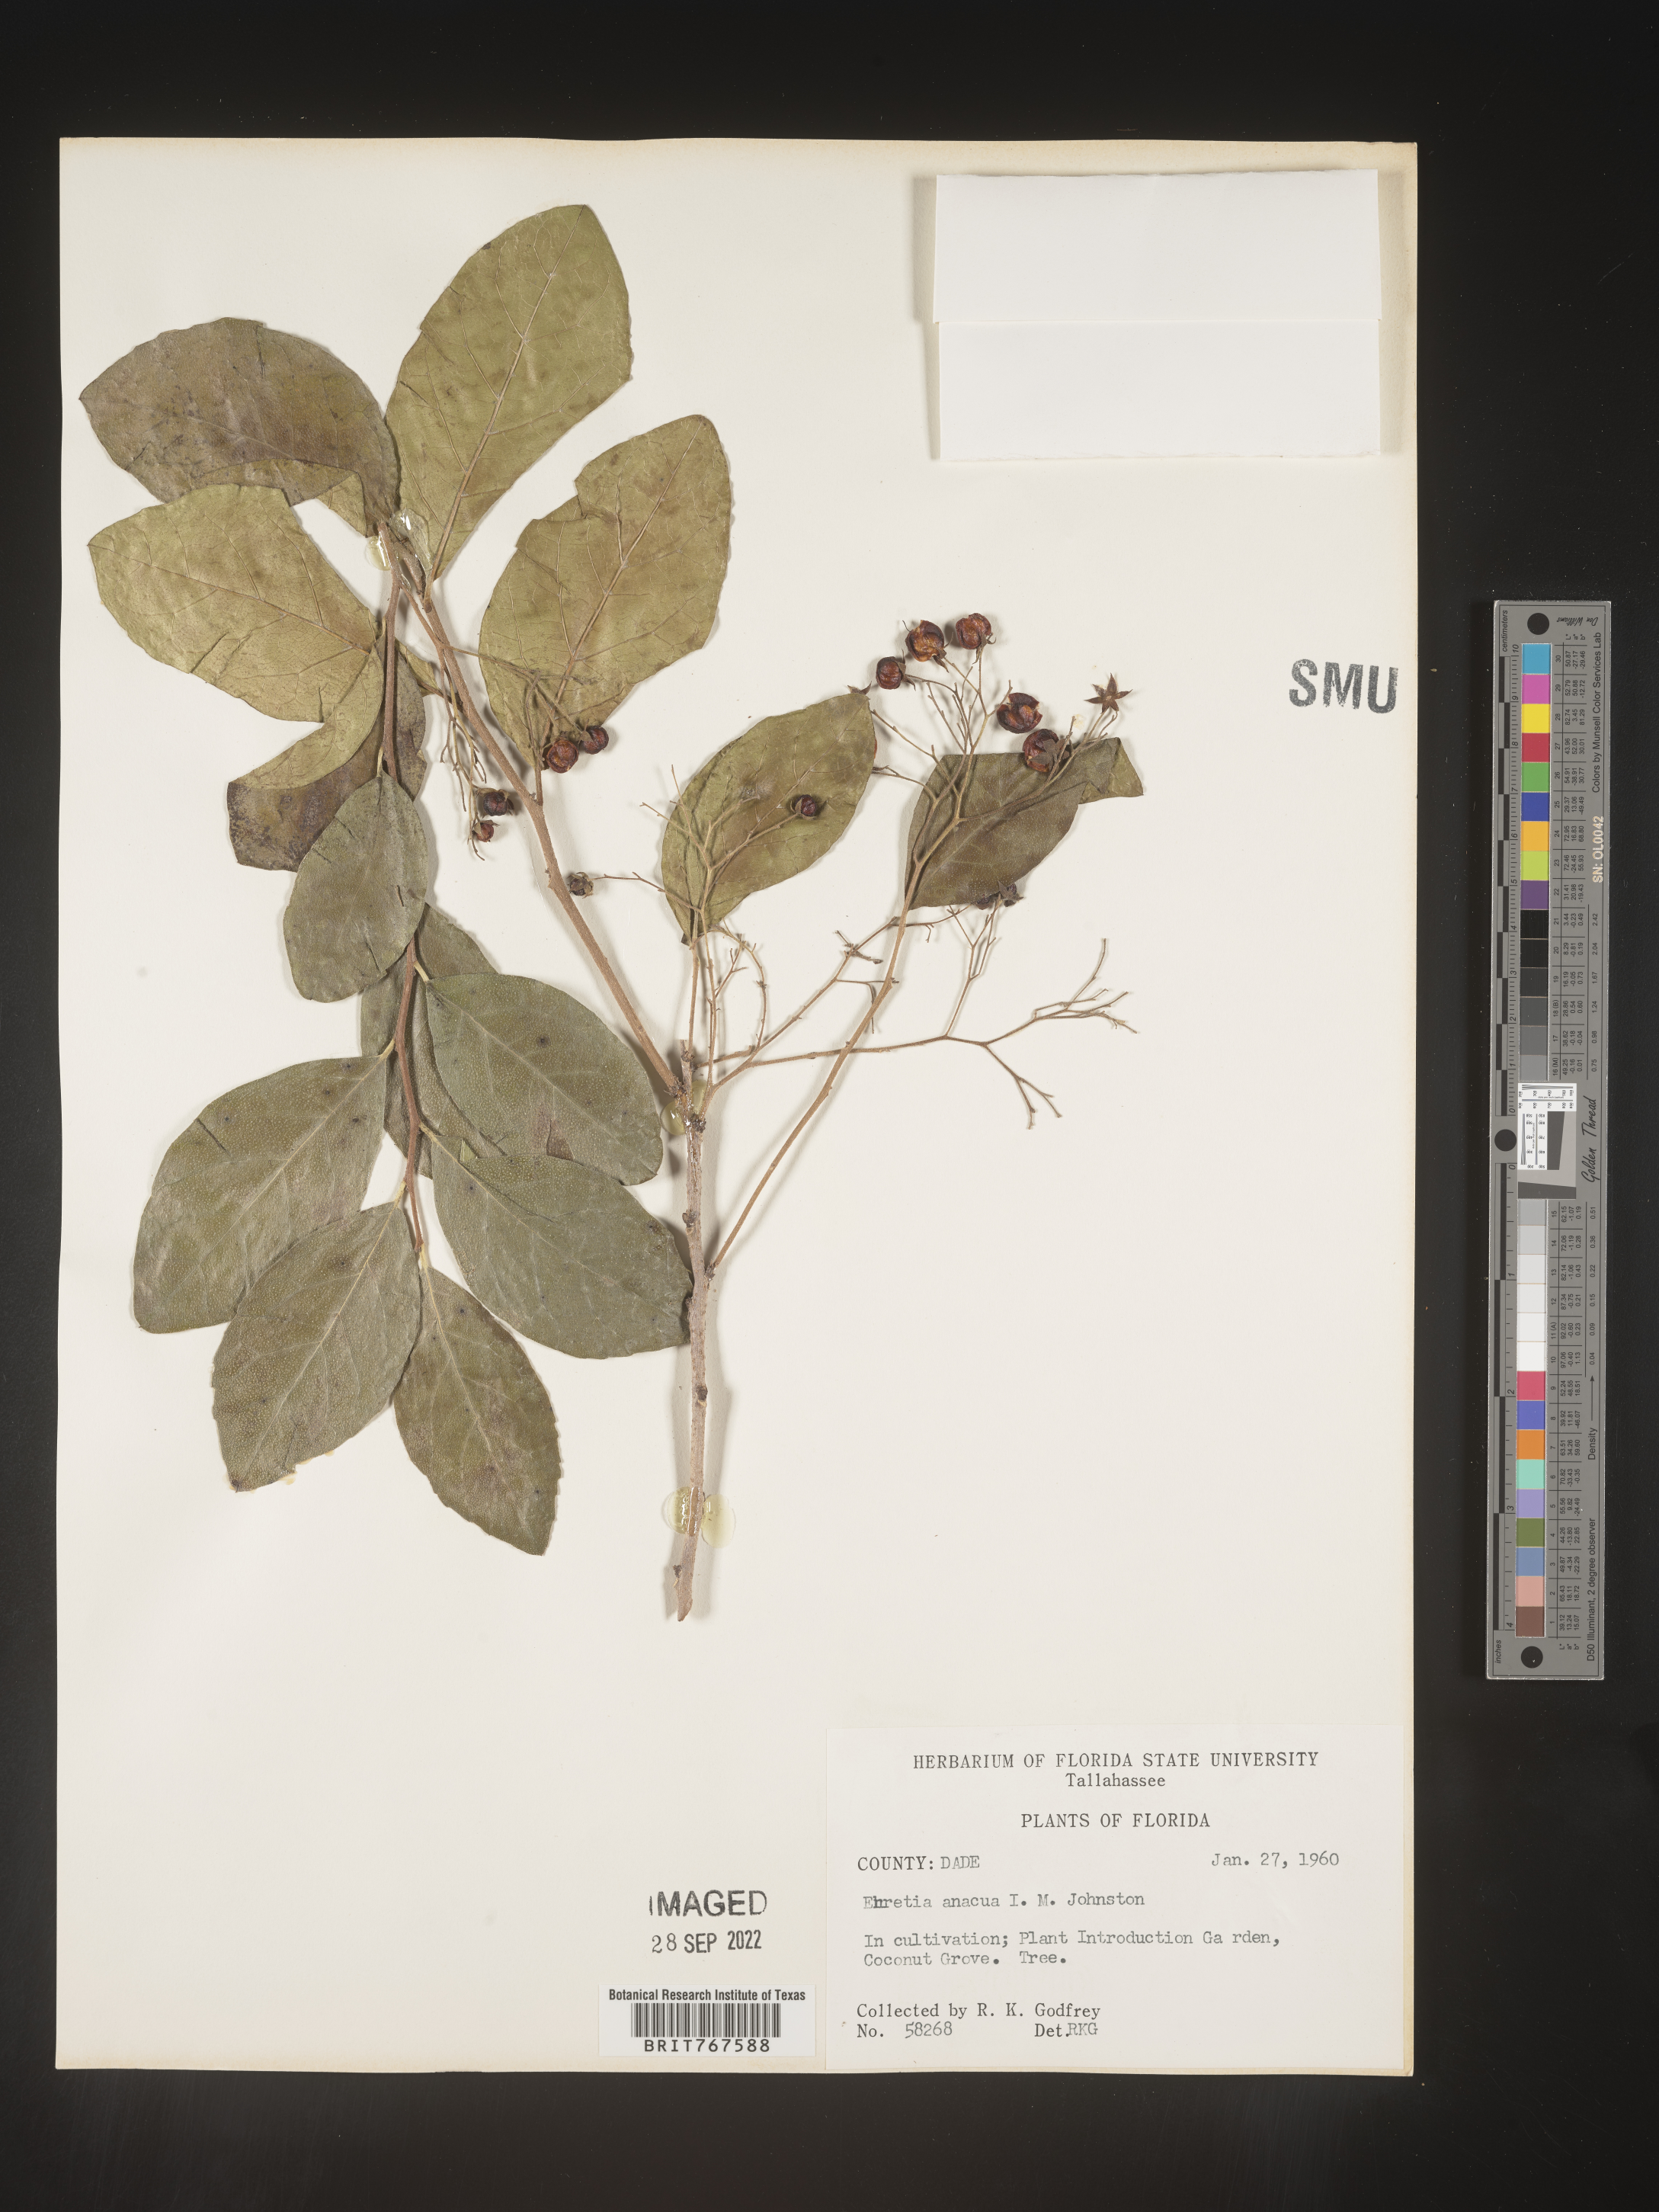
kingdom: Plantae
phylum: Tracheophyta
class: Magnoliopsida
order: Boraginales
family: Ehretiaceae
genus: Ehretia
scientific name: Ehretia
